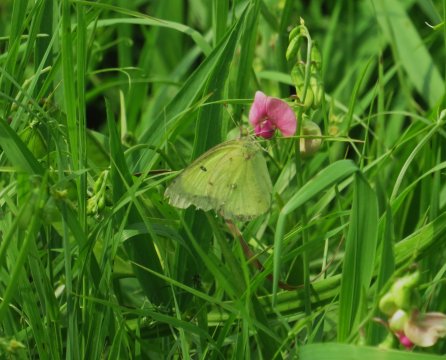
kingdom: Animalia
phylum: Arthropoda
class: Insecta
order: Lepidoptera
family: Pieridae
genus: Colias
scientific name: Colias philodice
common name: Clouded Sulphur
